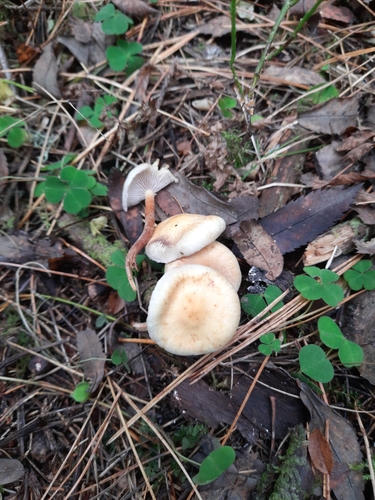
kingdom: Fungi
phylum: Basidiomycota
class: Agaricomycetes
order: Agaricales
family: Strophariaceae
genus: Hypholoma
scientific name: Hypholoma capnoides
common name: Conifer tuft
